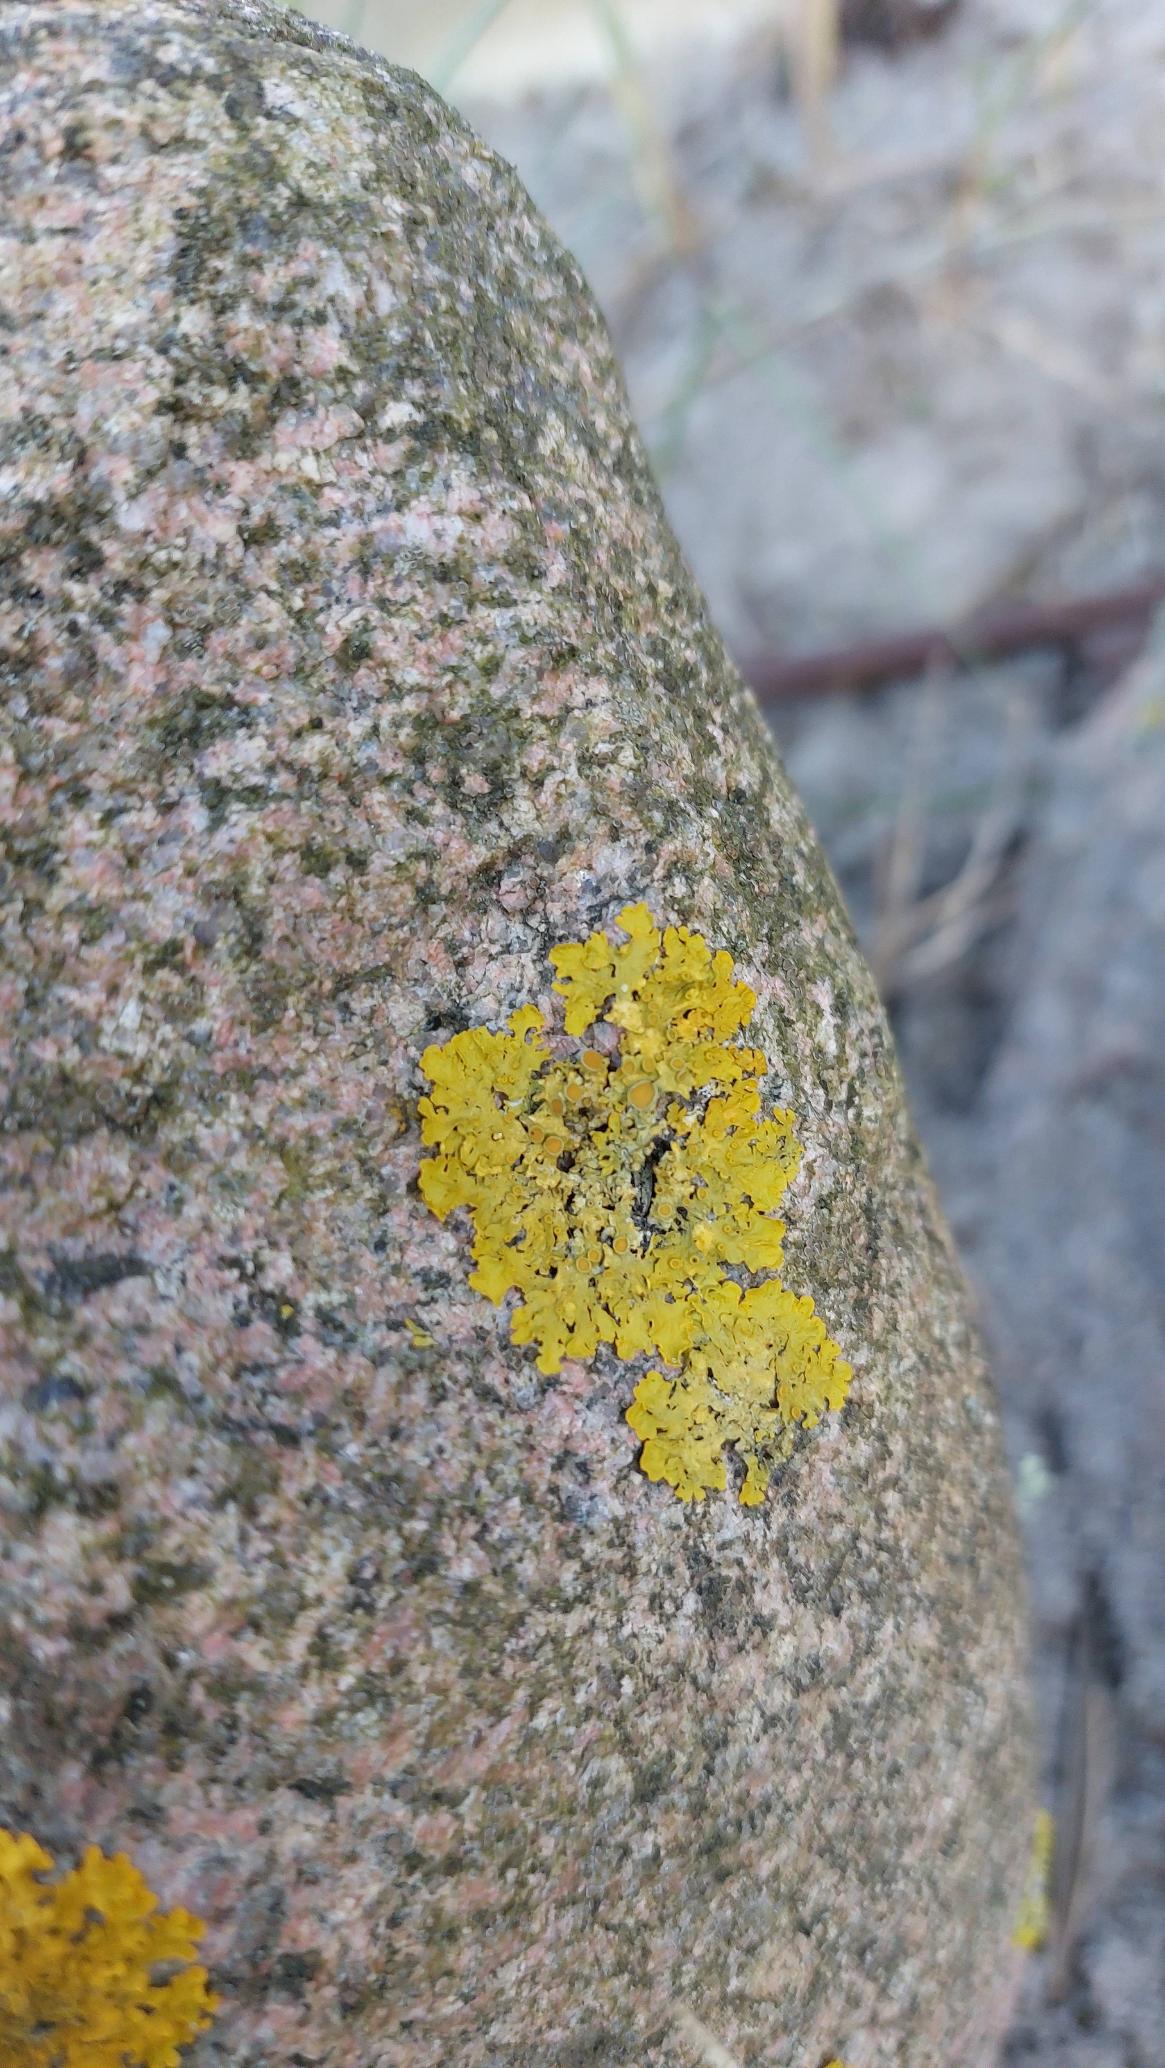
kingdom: Fungi
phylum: Ascomycota
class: Lecanoromycetes
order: Teloschistales
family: Teloschistaceae
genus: Xanthoria
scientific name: Xanthoria parietina
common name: Almindelig væggelav
